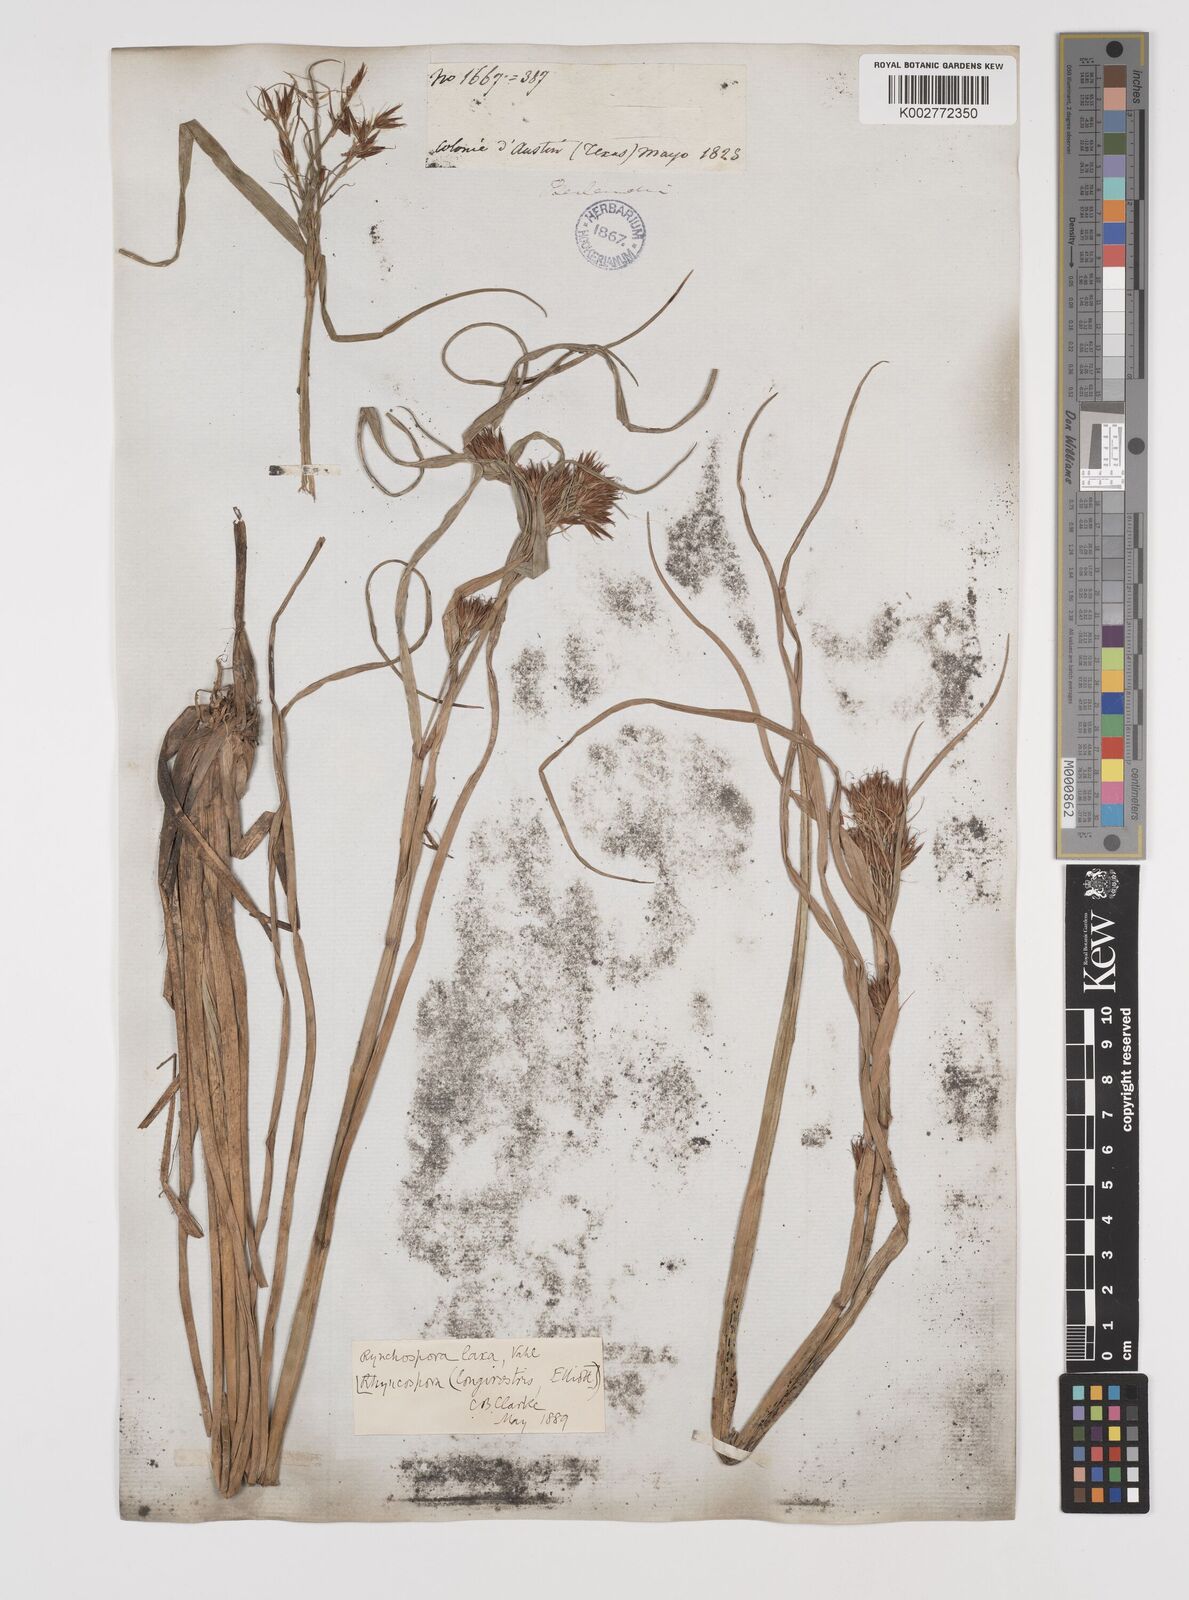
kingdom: Plantae
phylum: Tracheophyta
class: Liliopsida
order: Poales
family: Cyperaceae
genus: Rhynchospora
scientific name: Rhynchospora corniculata
